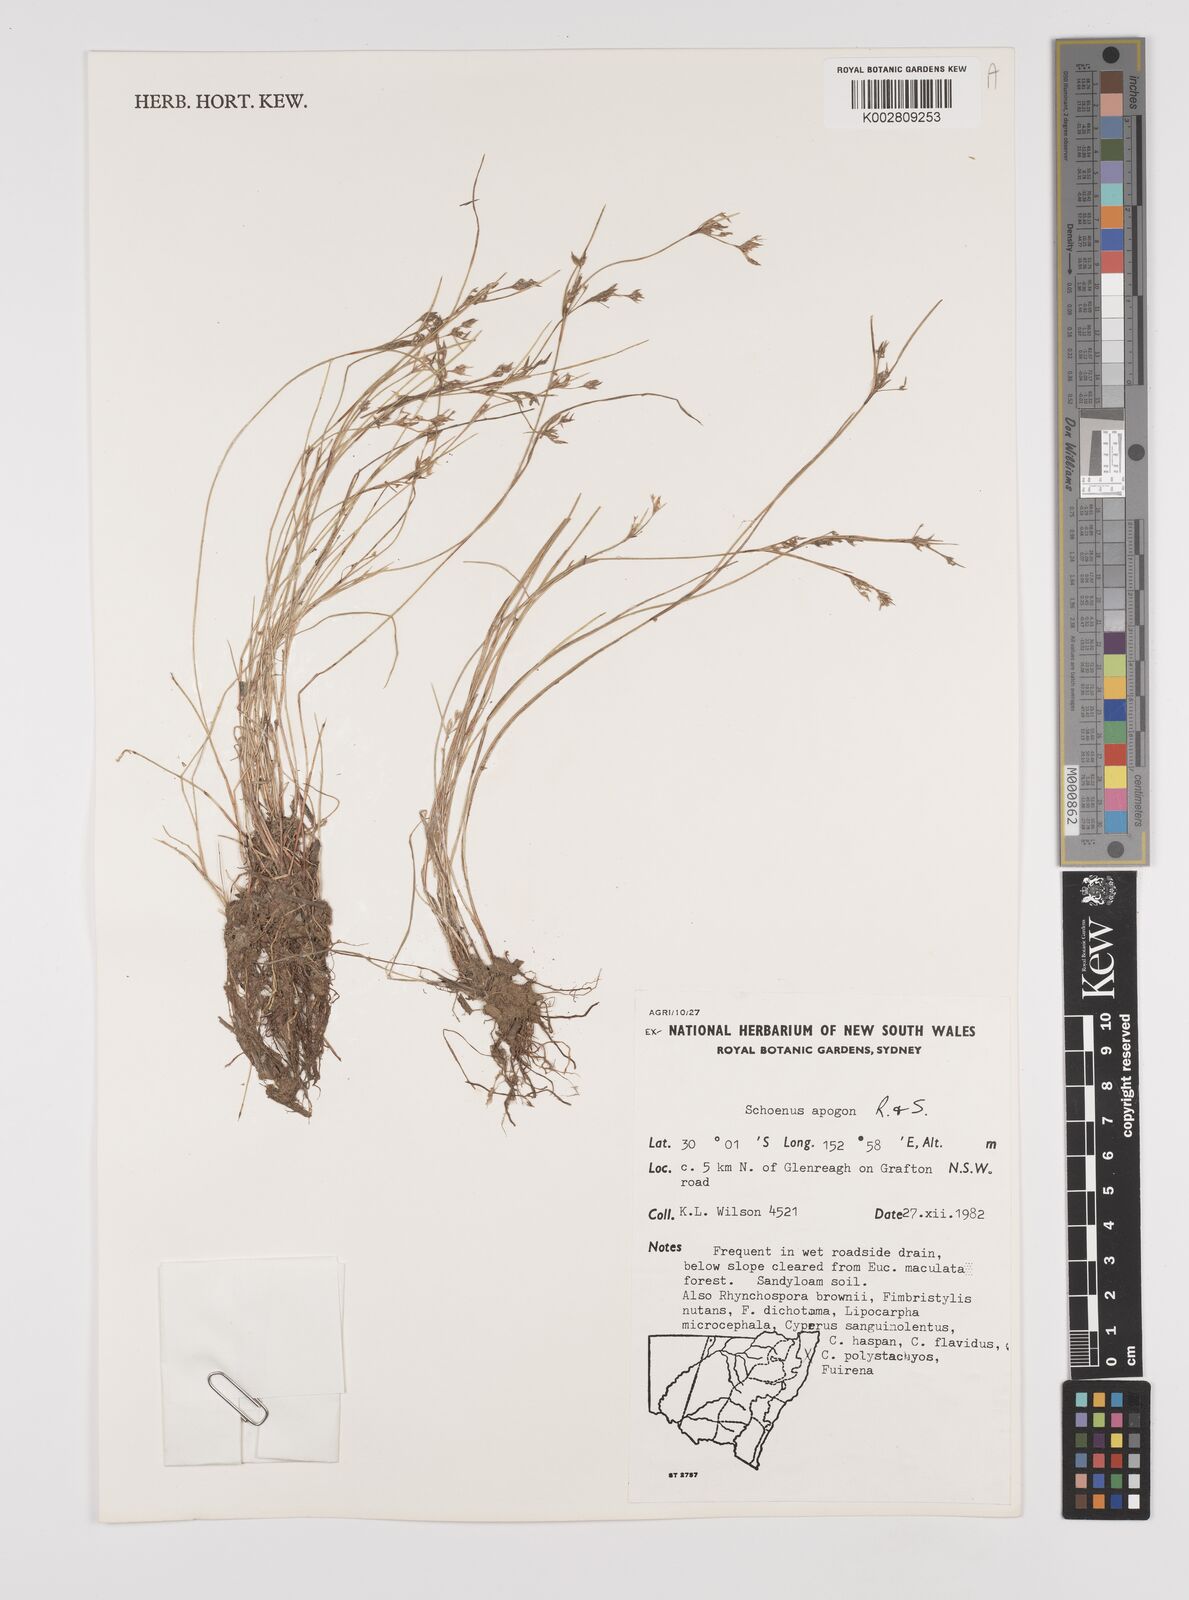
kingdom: Plantae
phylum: Tracheophyta
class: Liliopsida
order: Poales
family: Cyperaceae
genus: Schoenus
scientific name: Schoenus apogon
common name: Smooth bogrush
